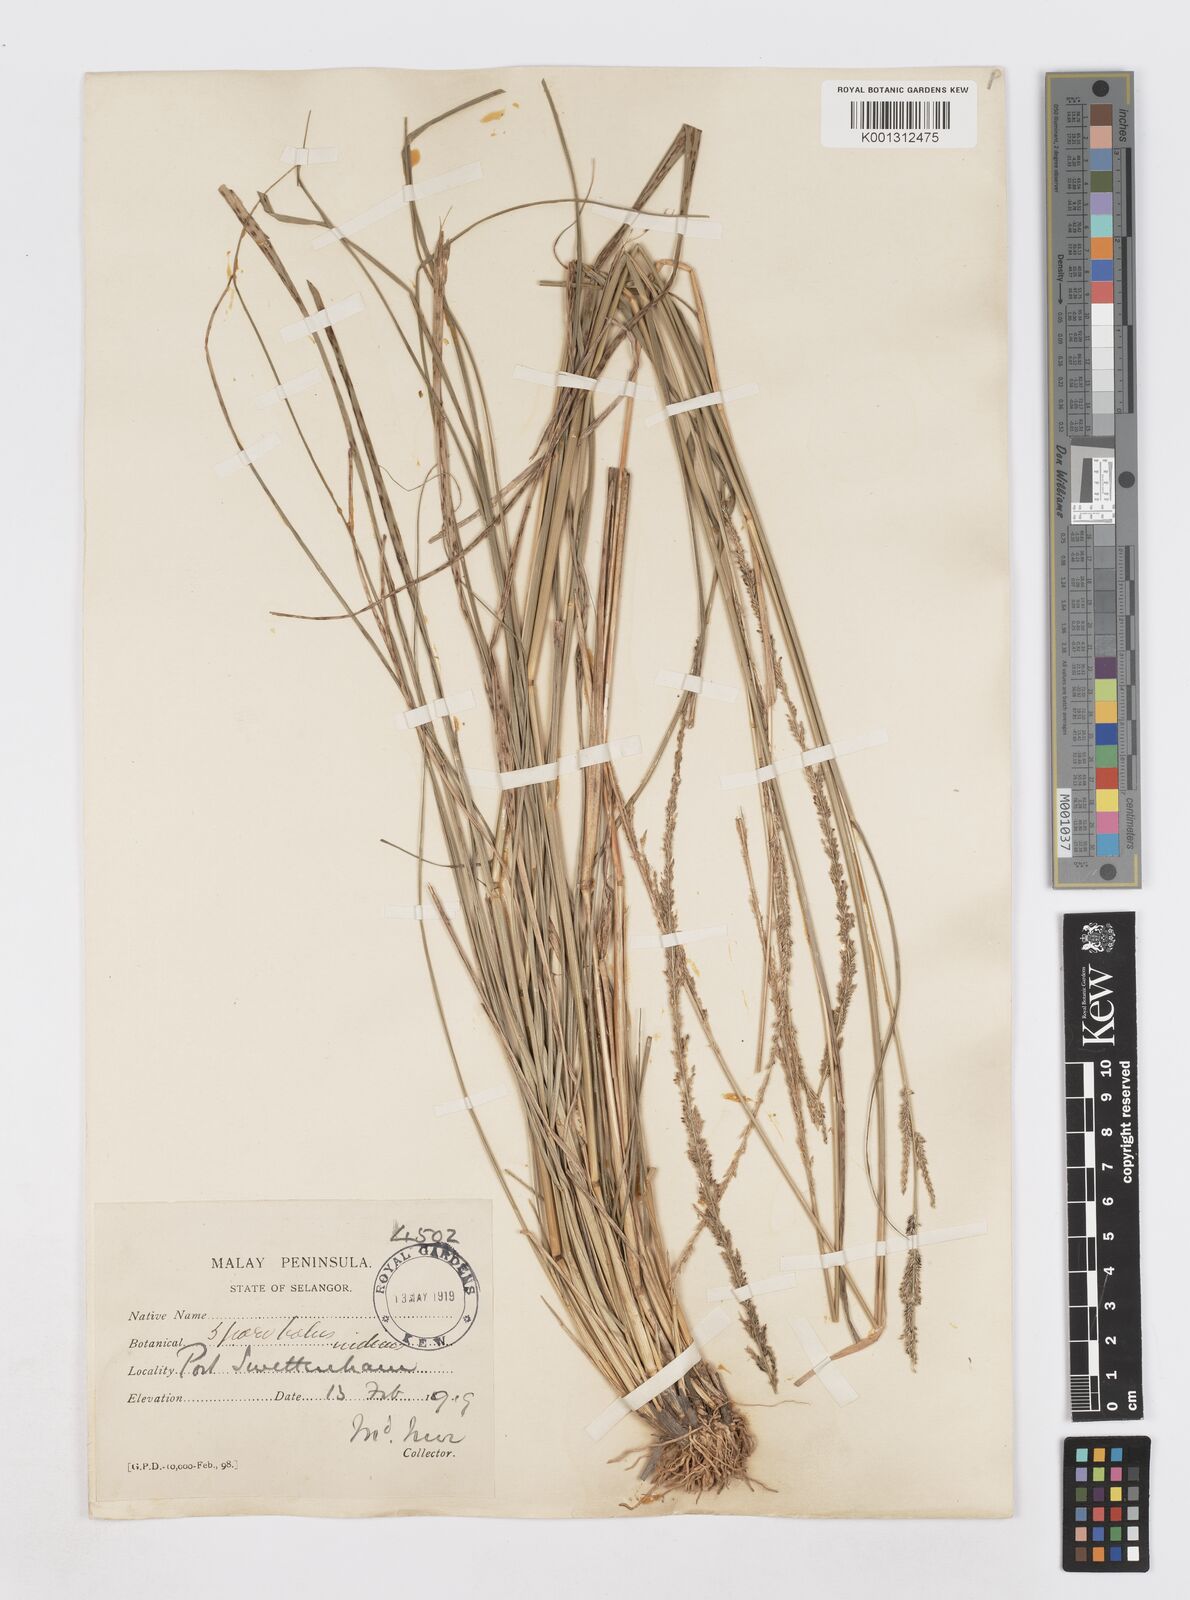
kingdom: Plantae
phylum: Tracheophyta
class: Liliopsida
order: Poales
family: Poaceae
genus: Sporobolus
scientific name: Sporobolus fertilis
